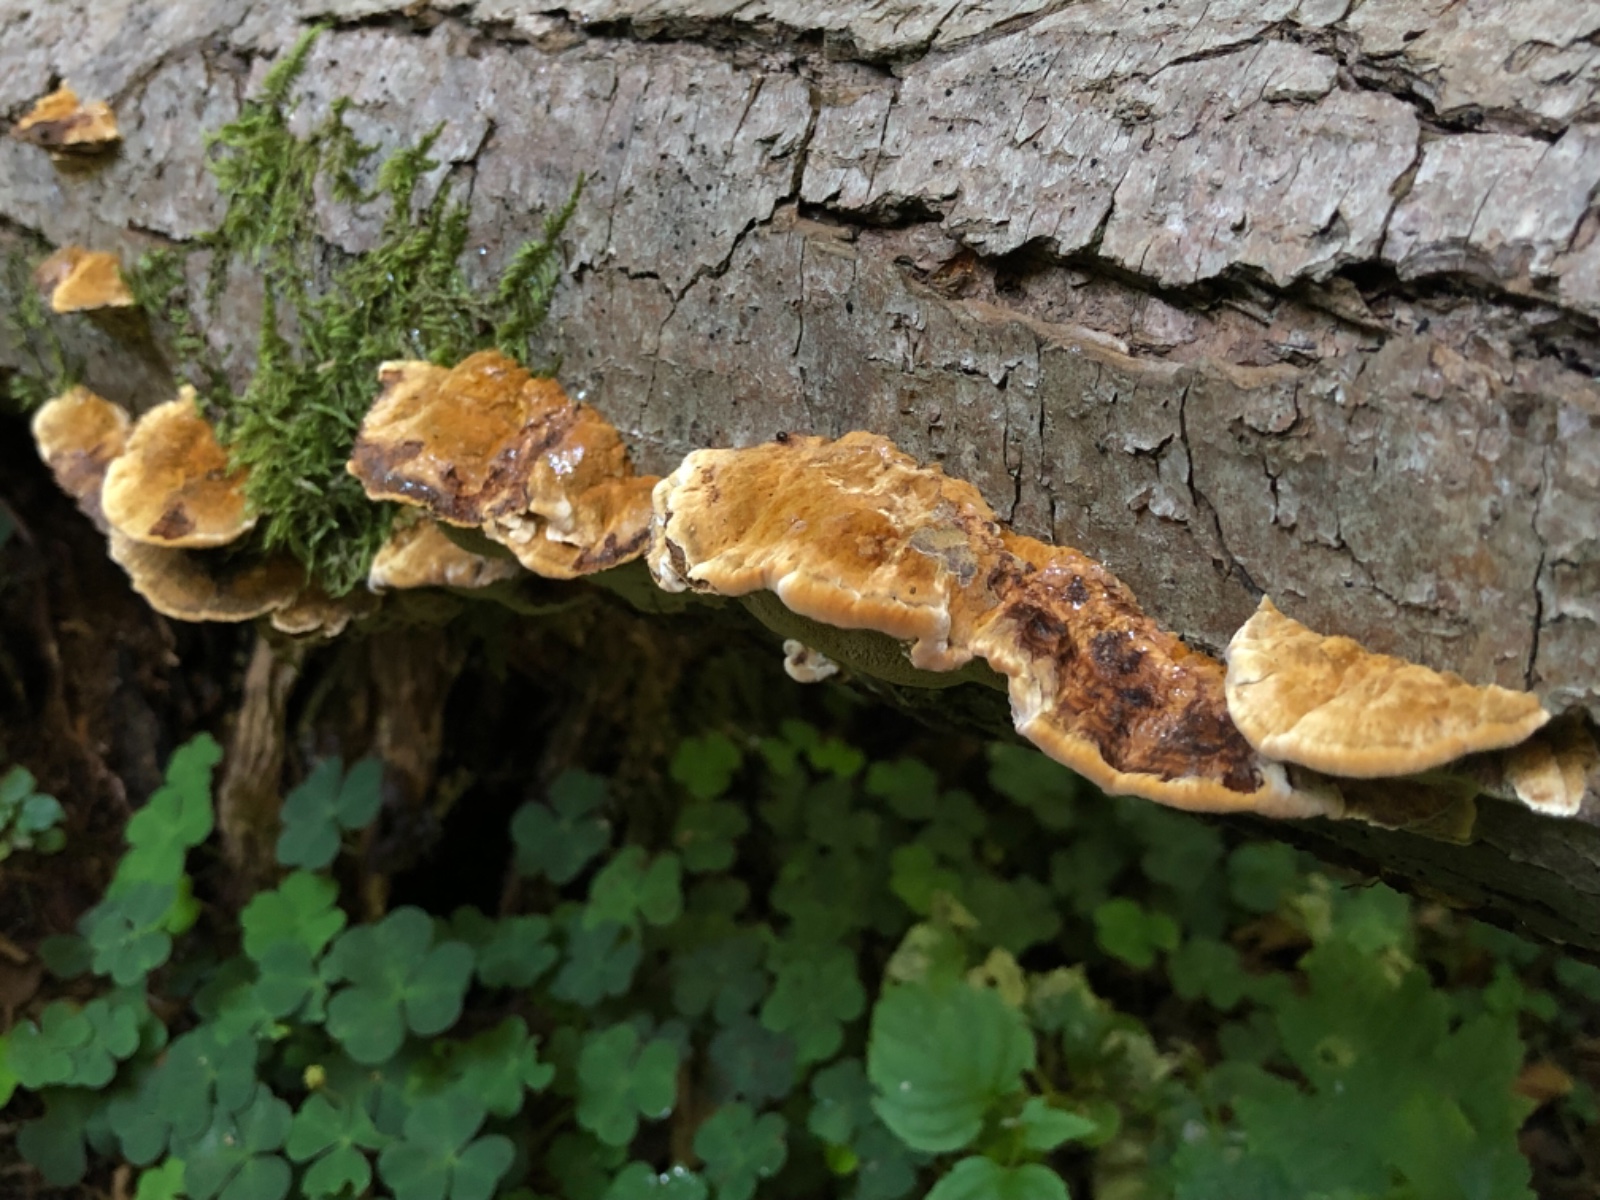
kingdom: Fungi
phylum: Basidiomycota
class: Agaricomycetes
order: Hymenochaetales
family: Hymenochaetaceae
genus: Xanthoporia
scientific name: Xanthoporia radiata
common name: elle-spejlporesvamp
